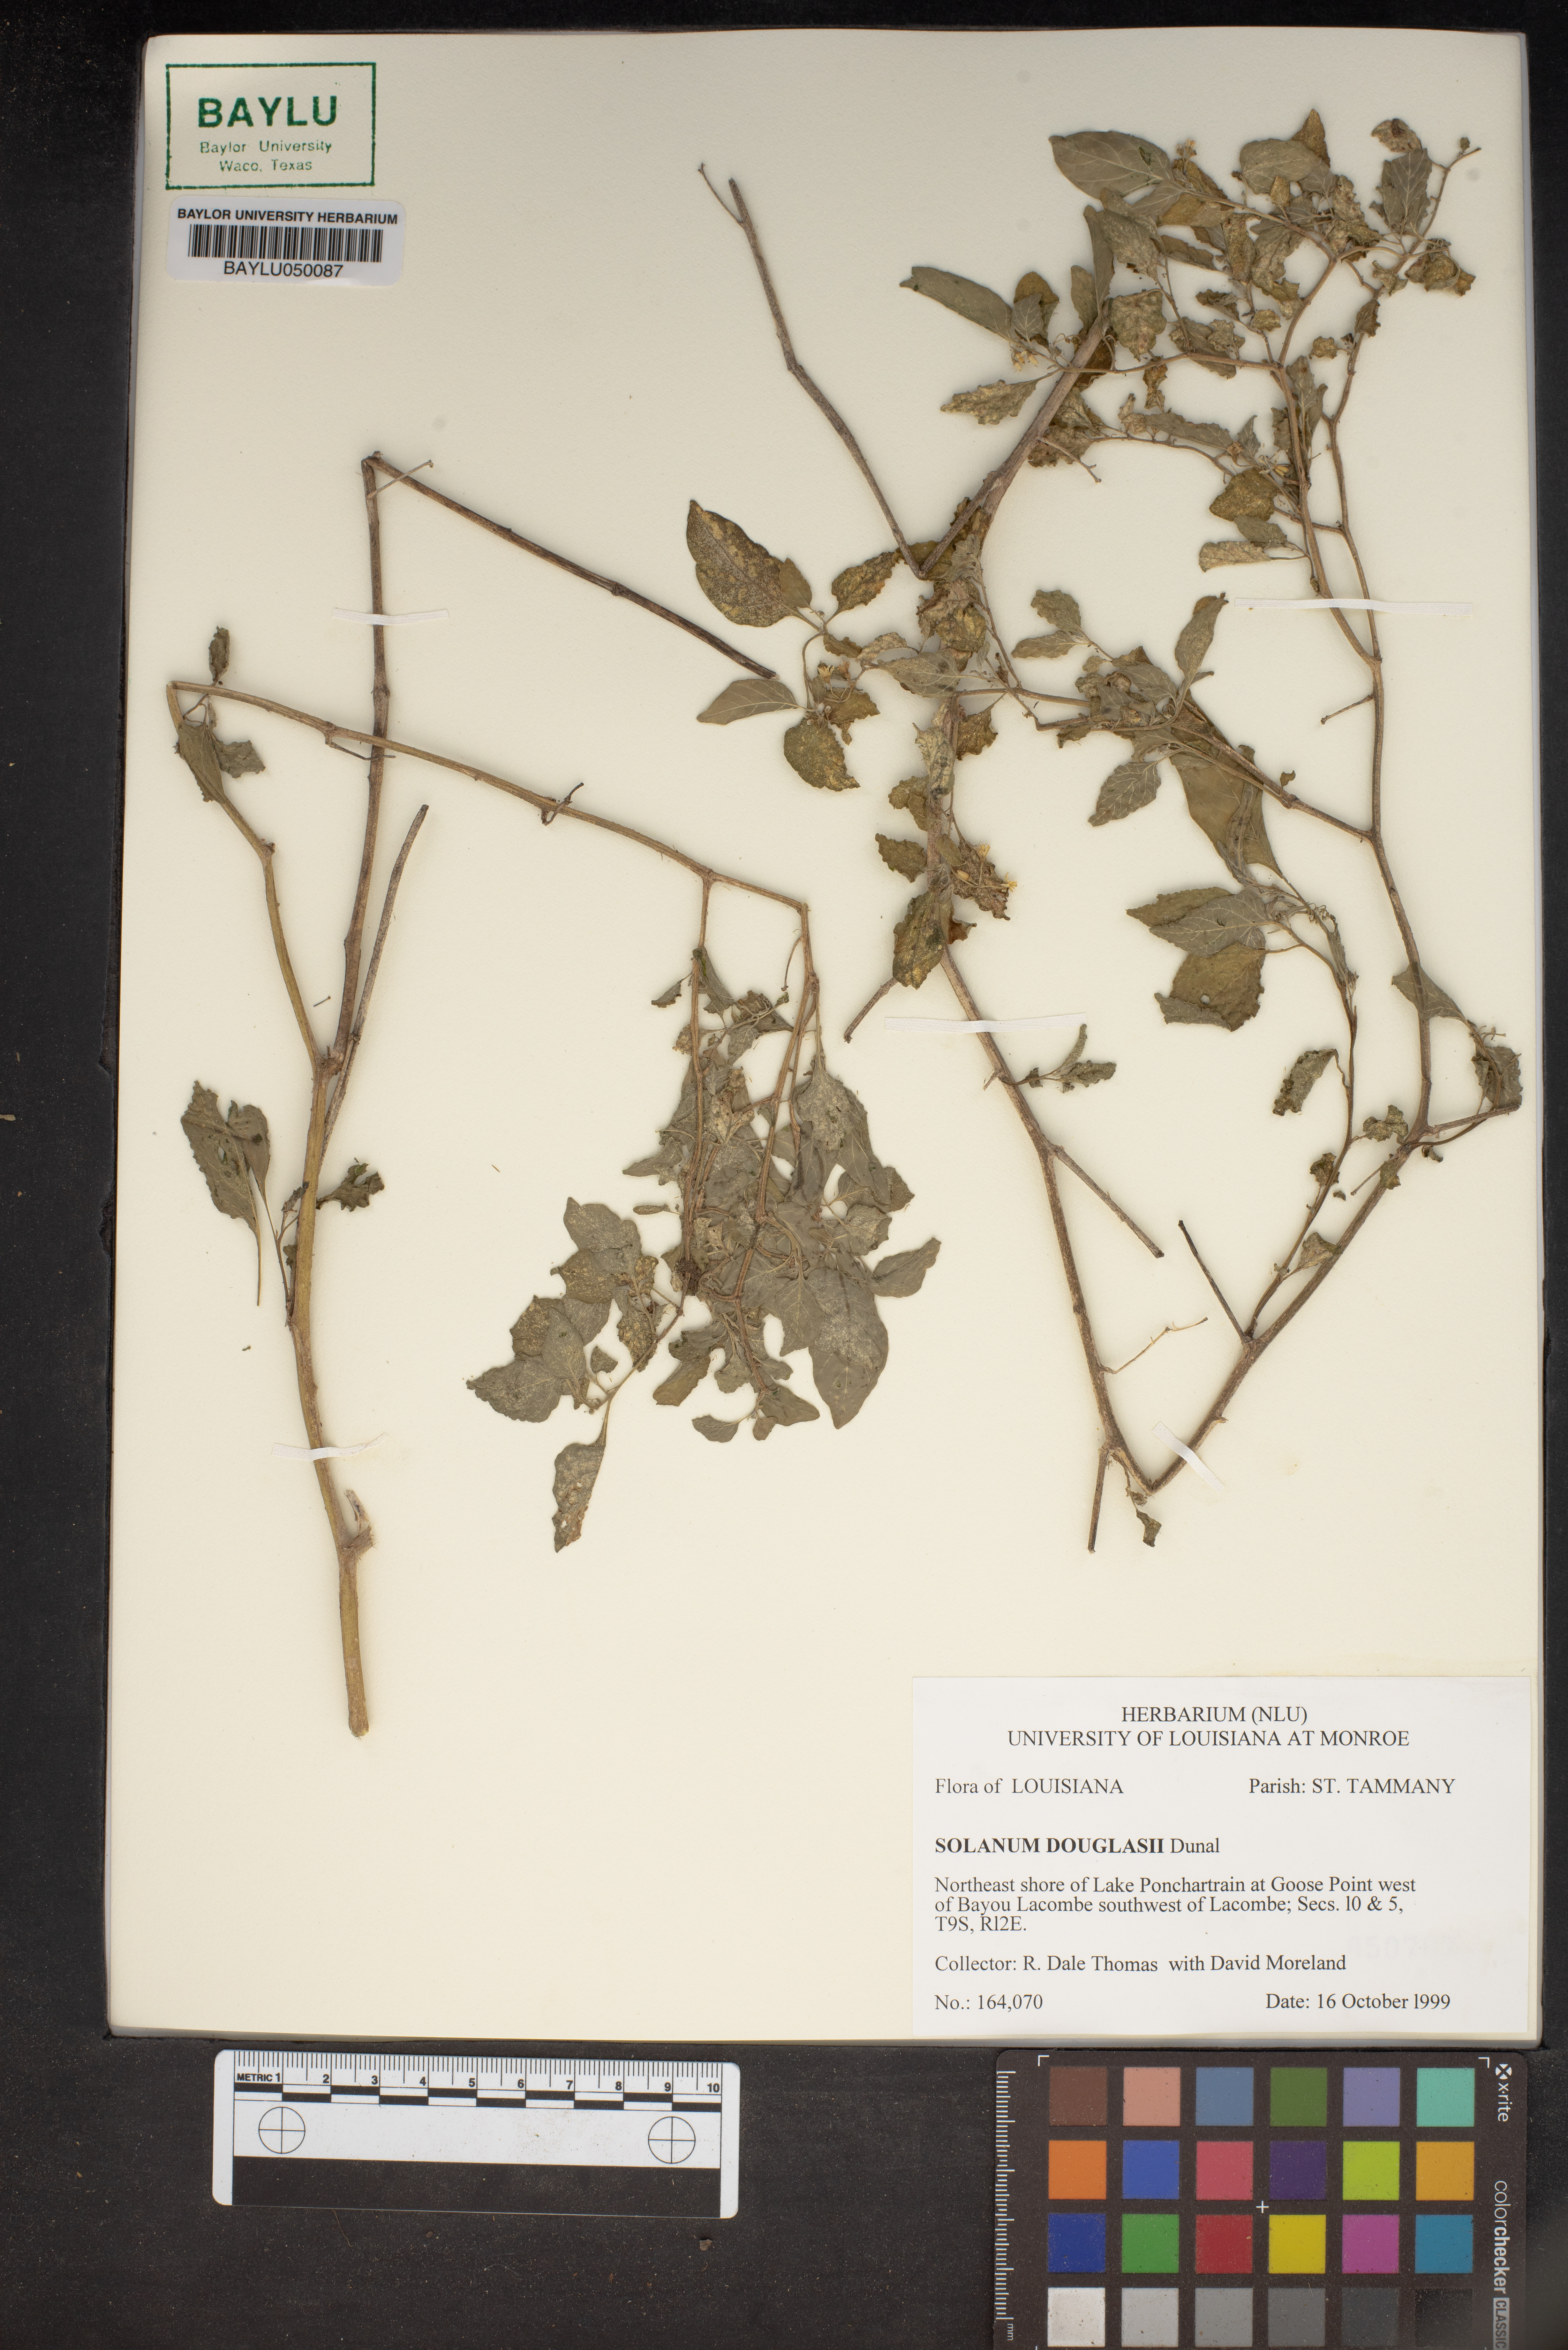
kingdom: Plantae
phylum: Tracheophyta
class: Magnoliopsida
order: Solanales
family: Solanaceae
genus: Solanum
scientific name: Solanum douglasii
